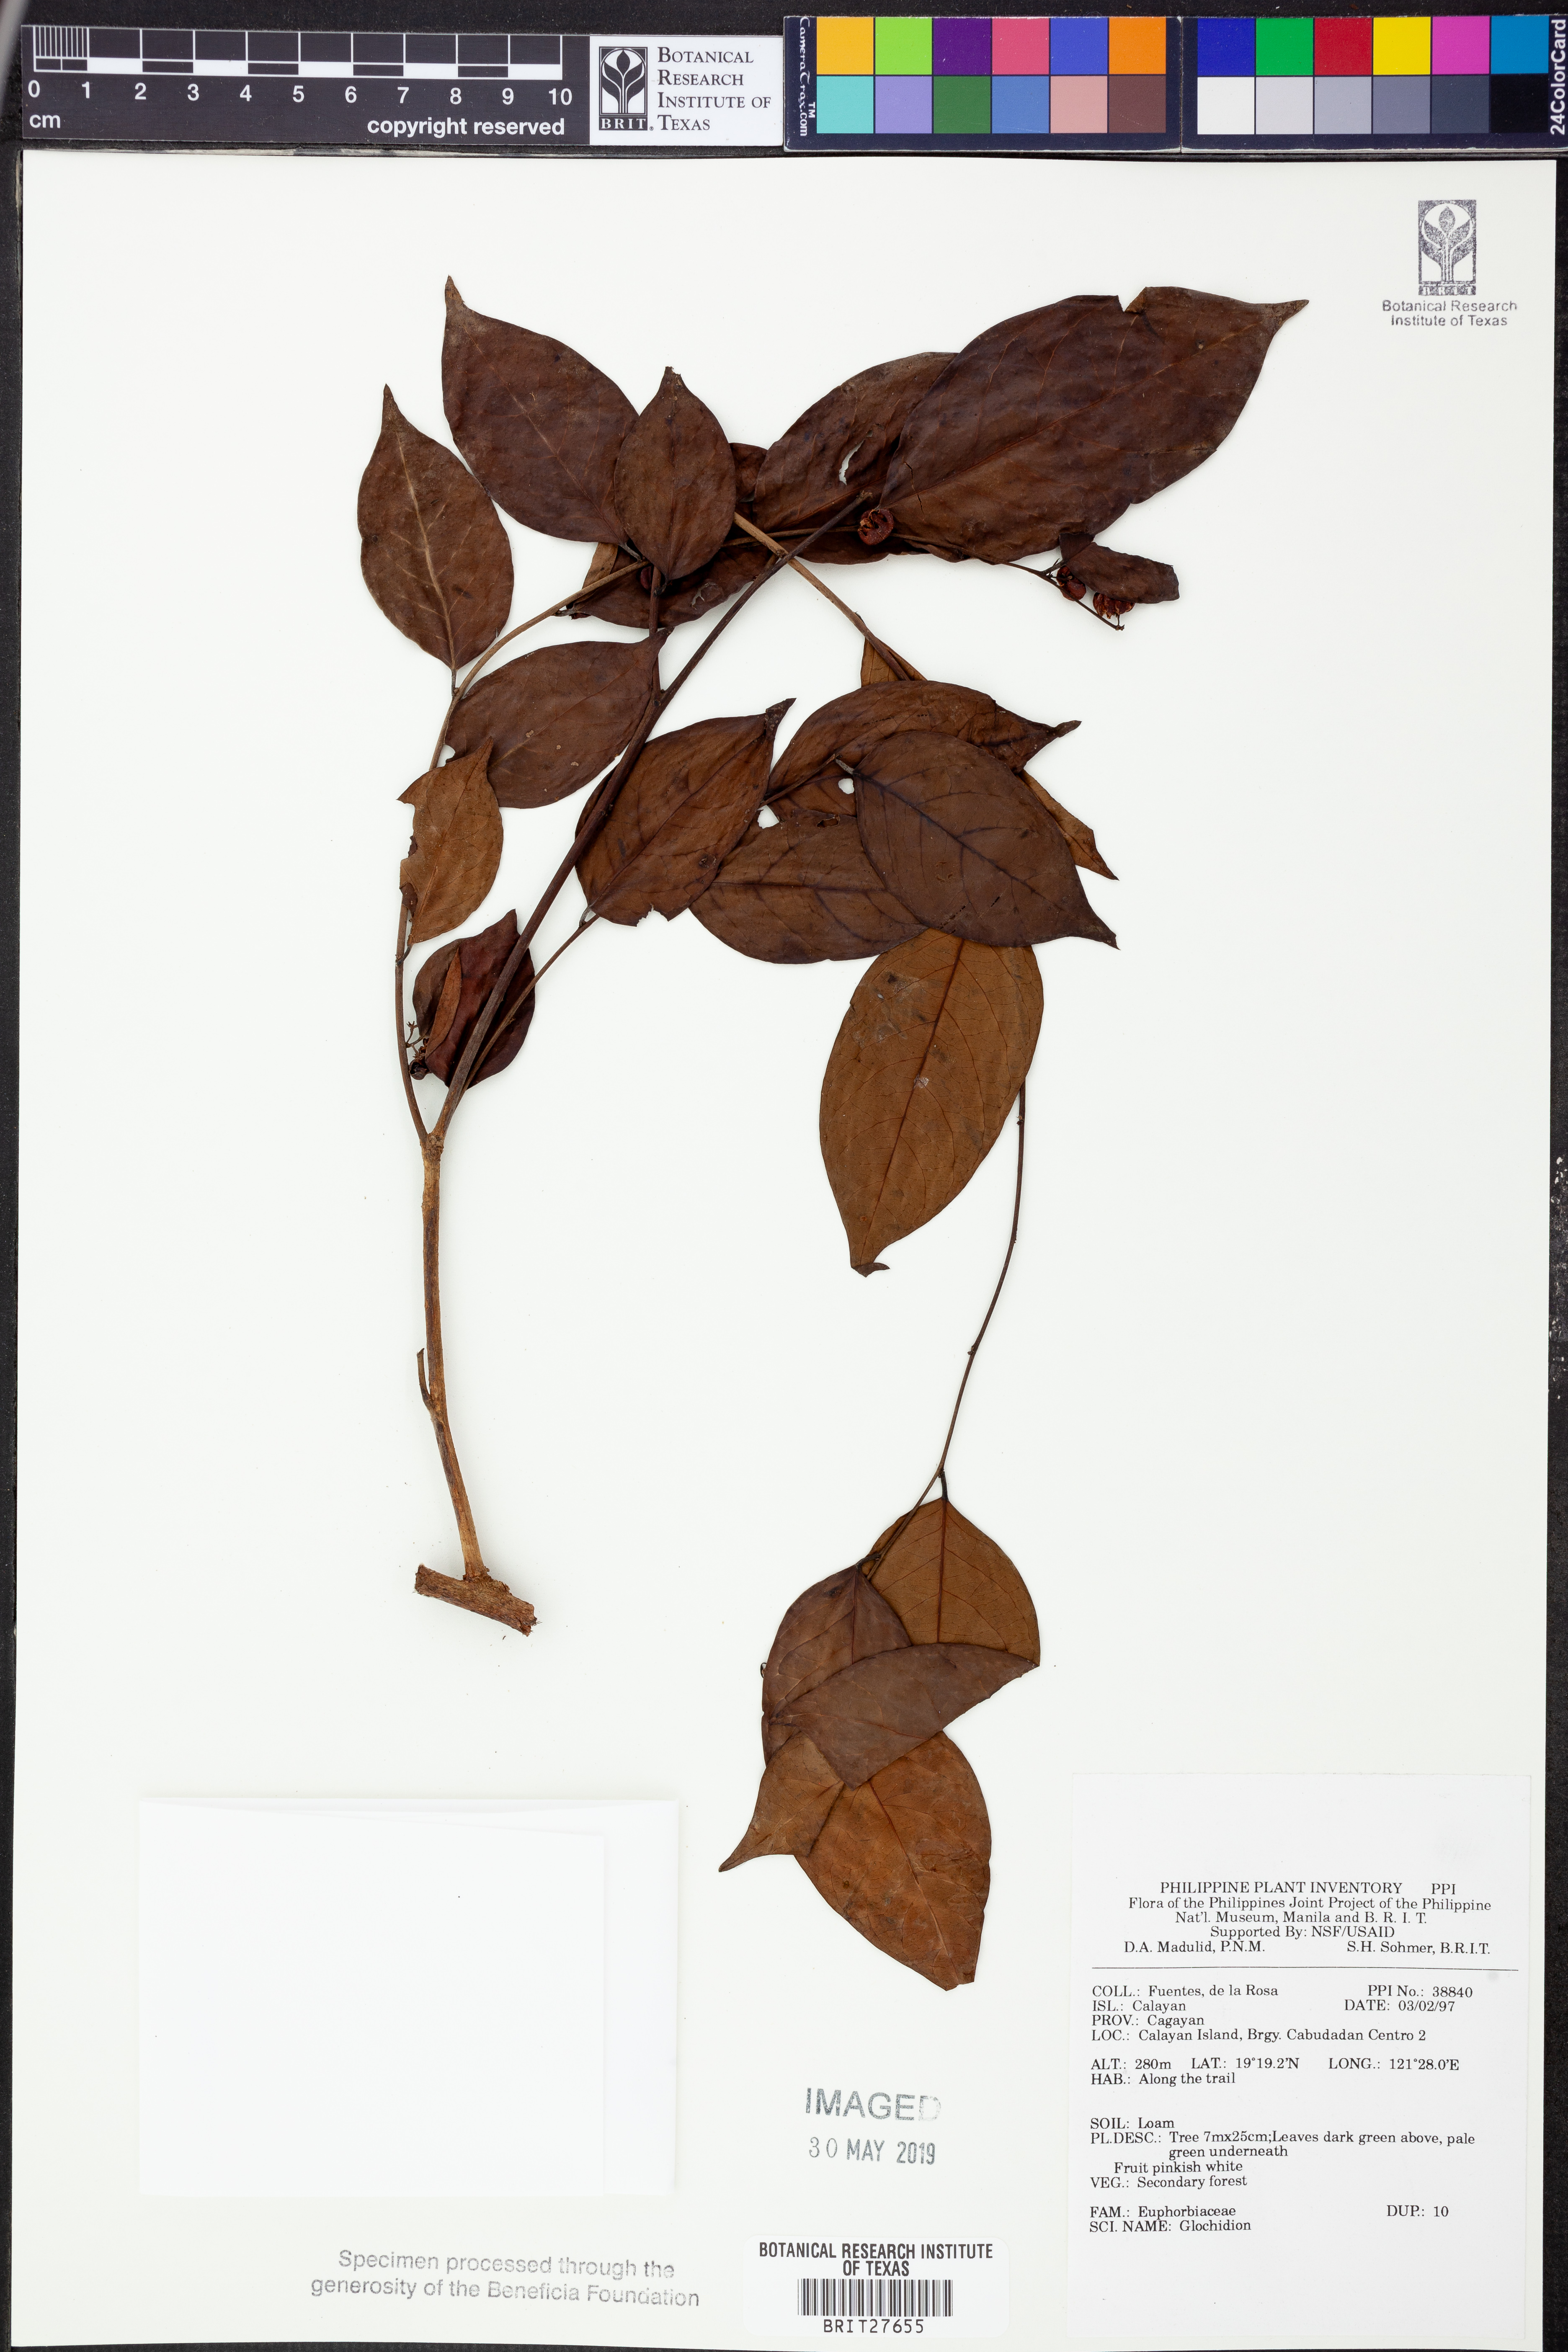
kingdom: Plantae
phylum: Tracheophyta
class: Magnoliopsida
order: Malpighiales
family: Phyllanthaceae
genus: Glochidion
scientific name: Glochidion
